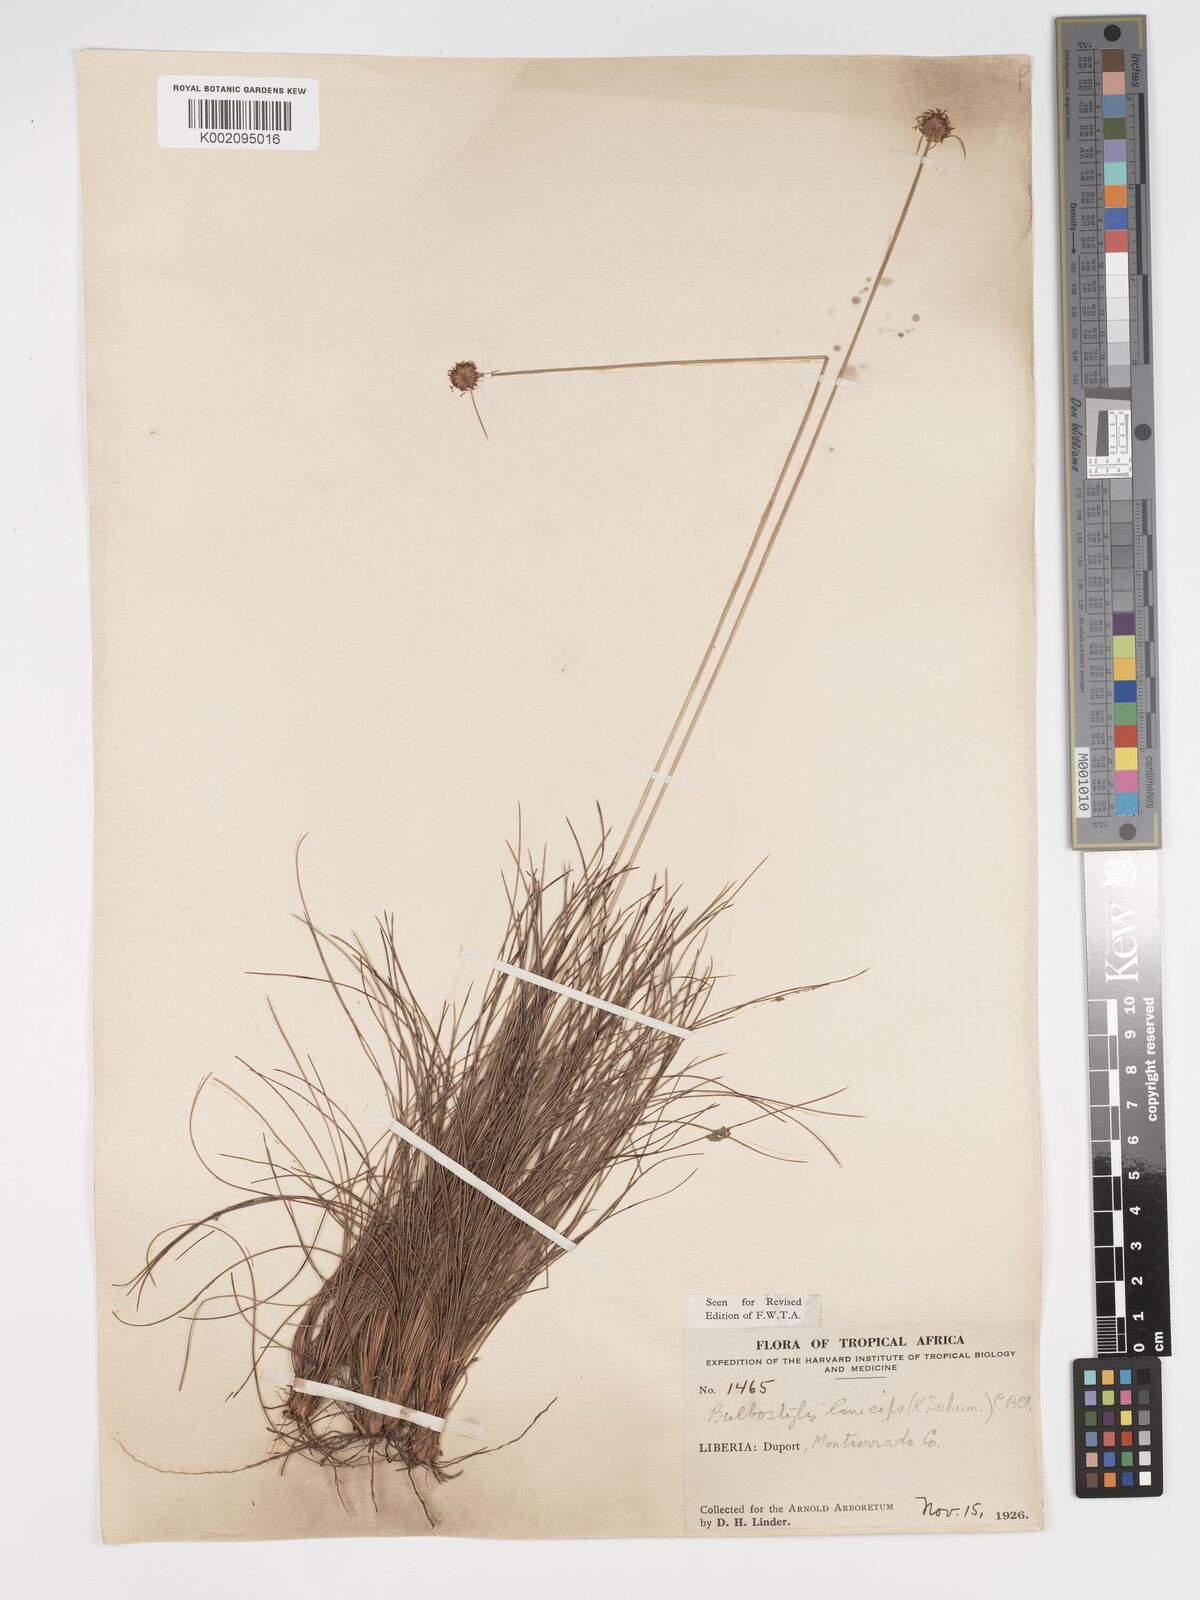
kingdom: Plantae
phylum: Tracheophyta
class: Liliopsida
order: Poales
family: Cyperaceae
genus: Bulbostylis
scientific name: Bulbostylis laniceps
